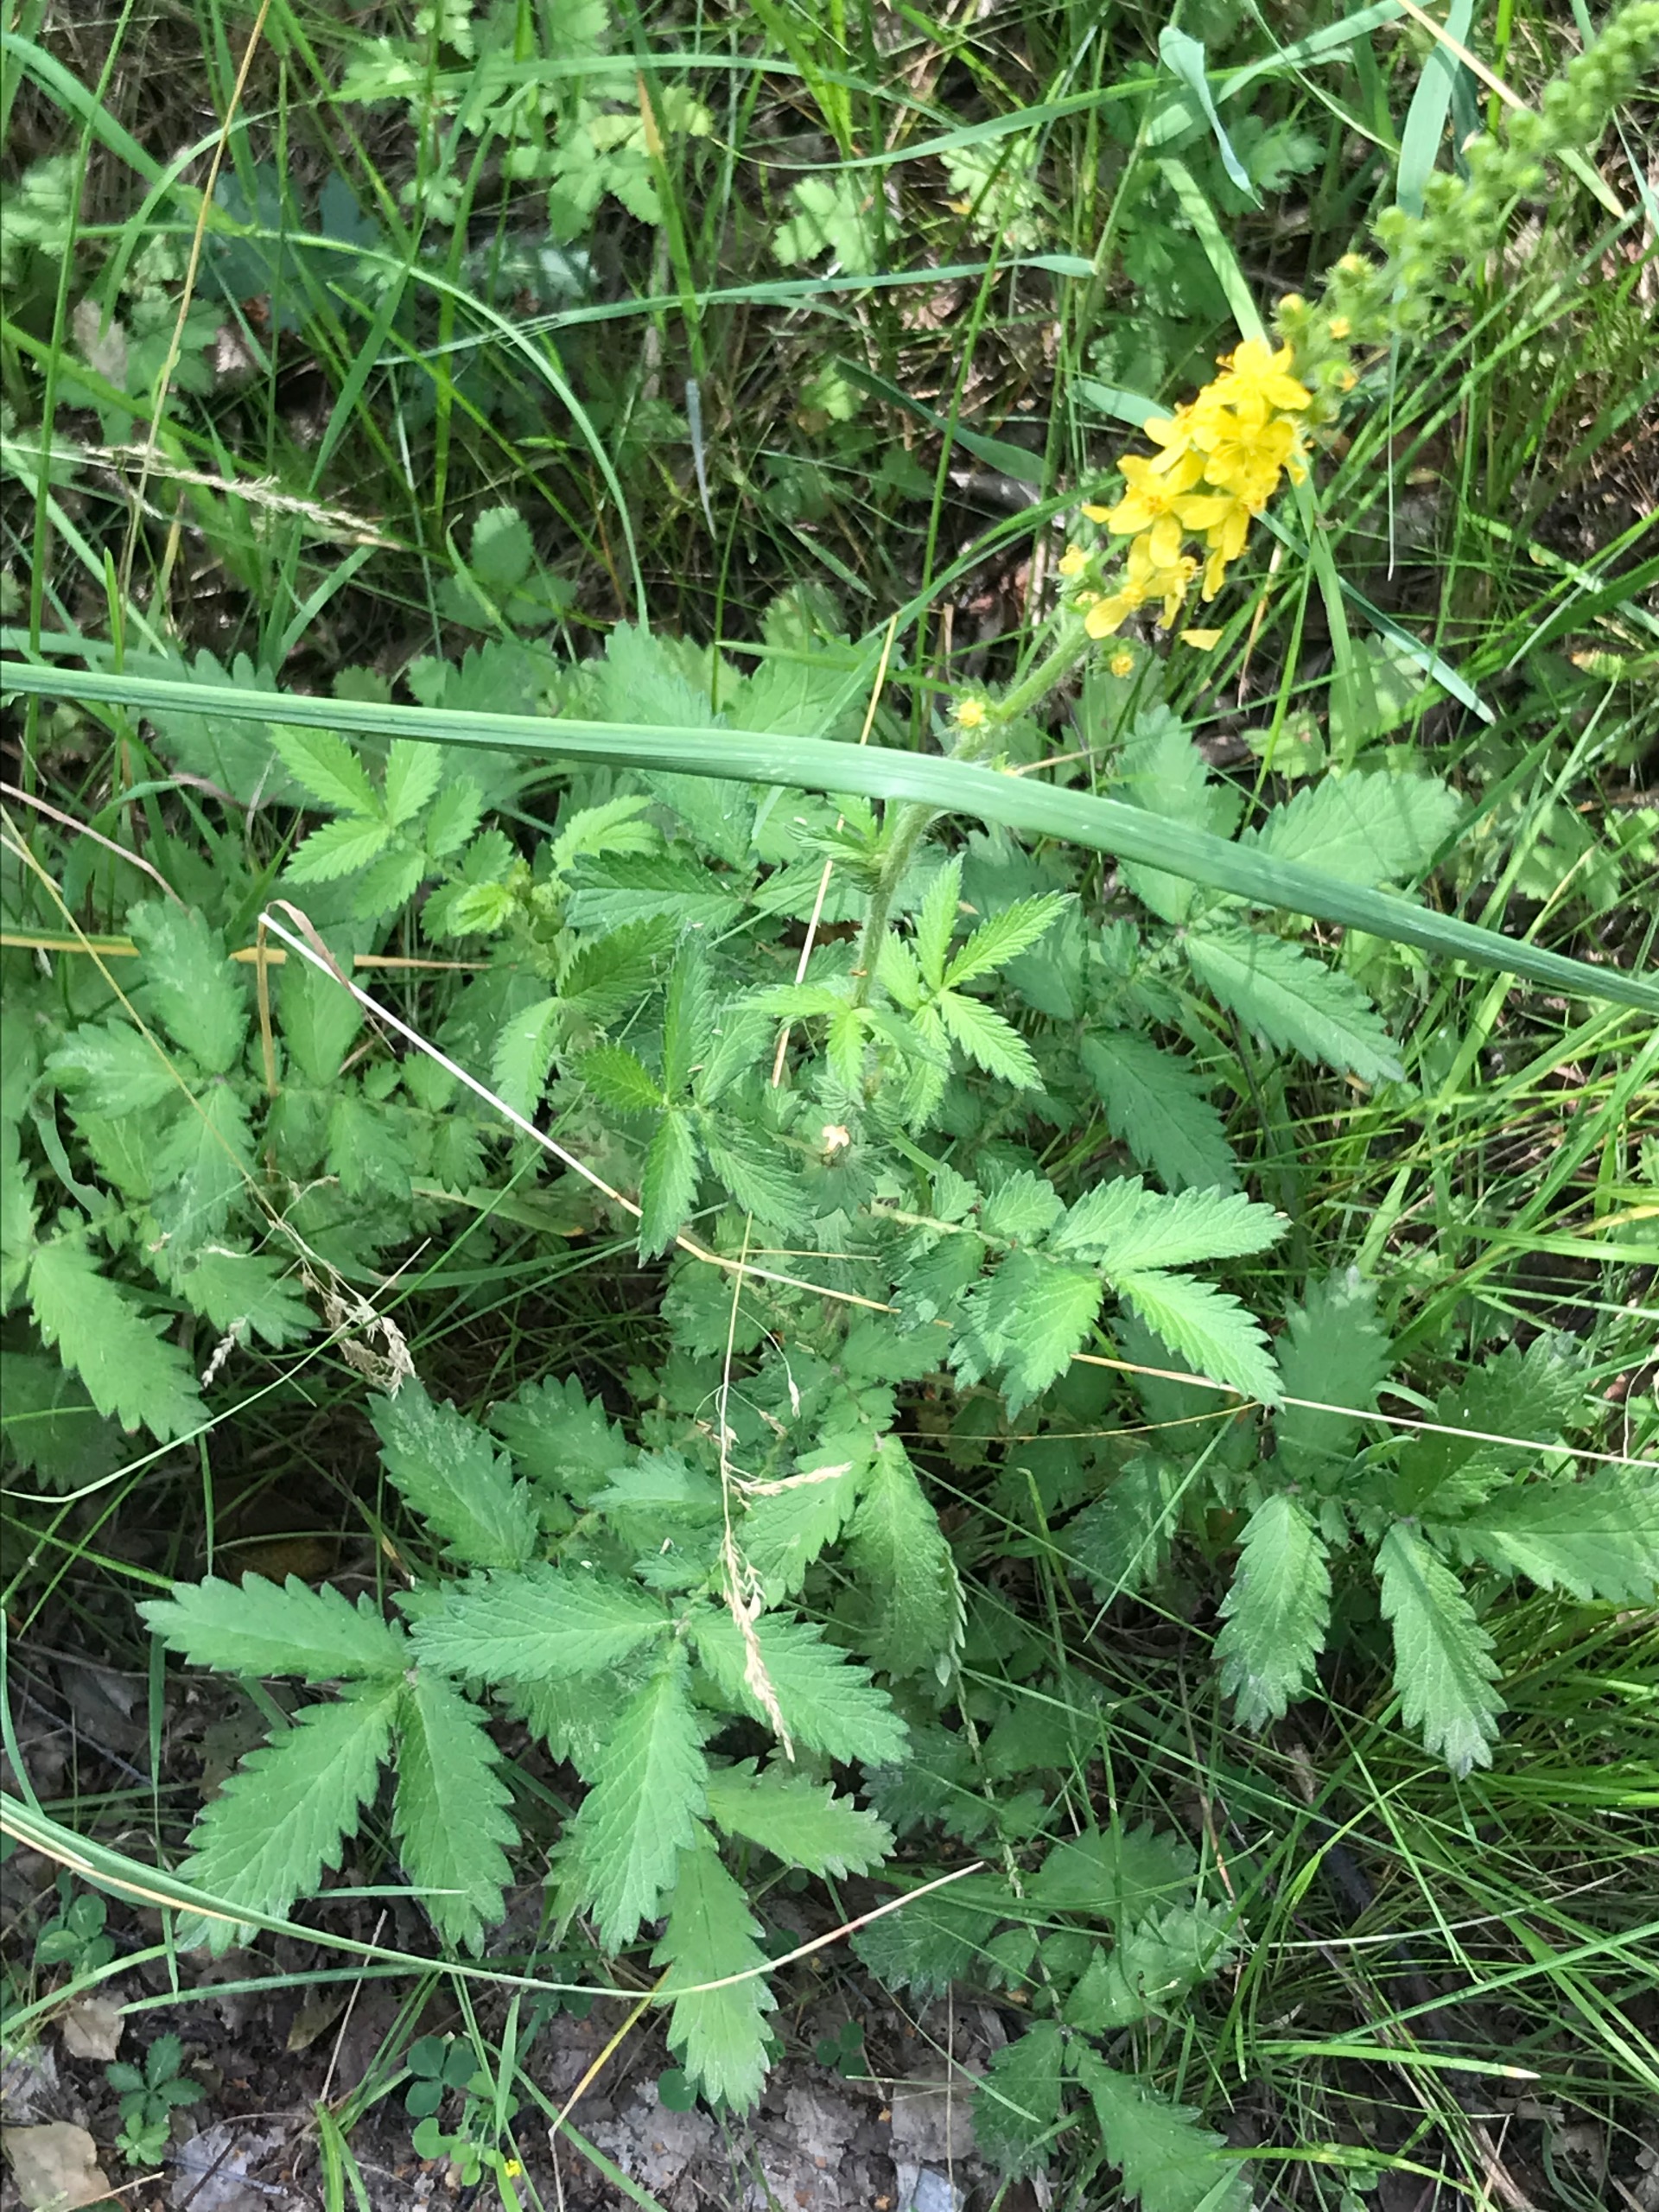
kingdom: Plantae
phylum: Tracheophyta
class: Magnoliopsida
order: Rosales
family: Rosaceae
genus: Agrimonia
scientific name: Agrimonia
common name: Agermåneslægten
